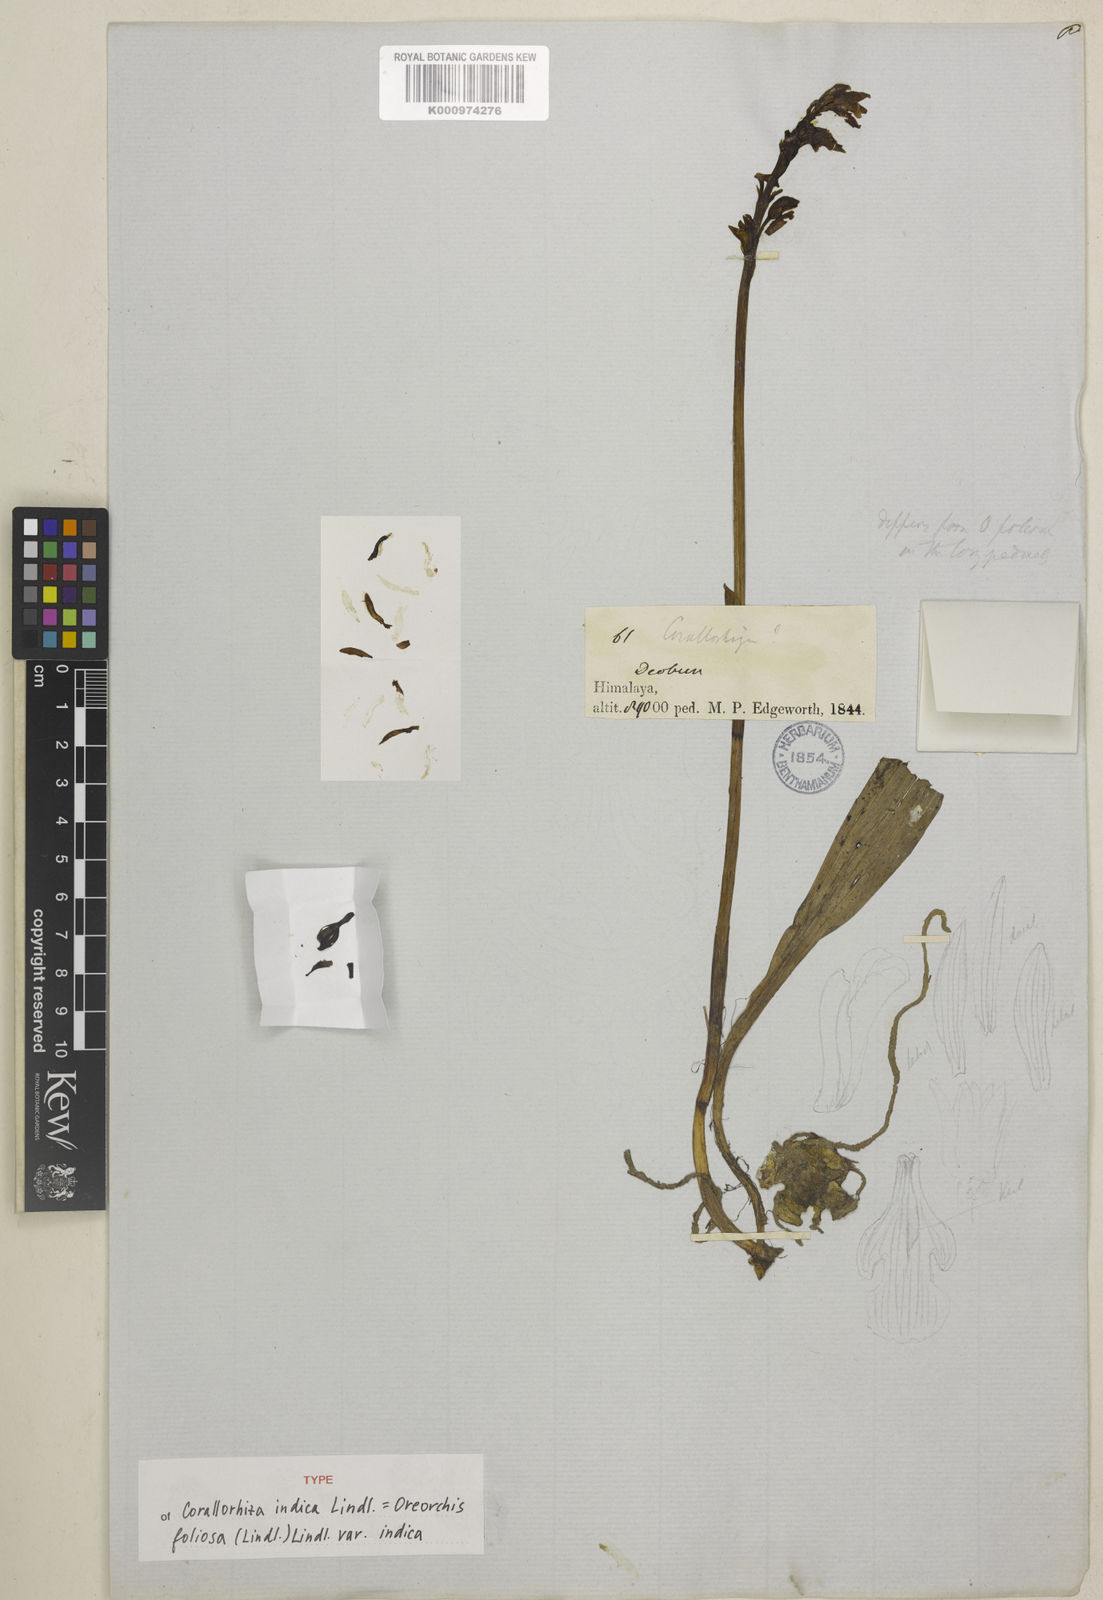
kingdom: Plantae
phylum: Tracheophyta
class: Liliopsida
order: Asparagales
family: Orchidaceae
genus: Oreorchis
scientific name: Oreorchis indica
